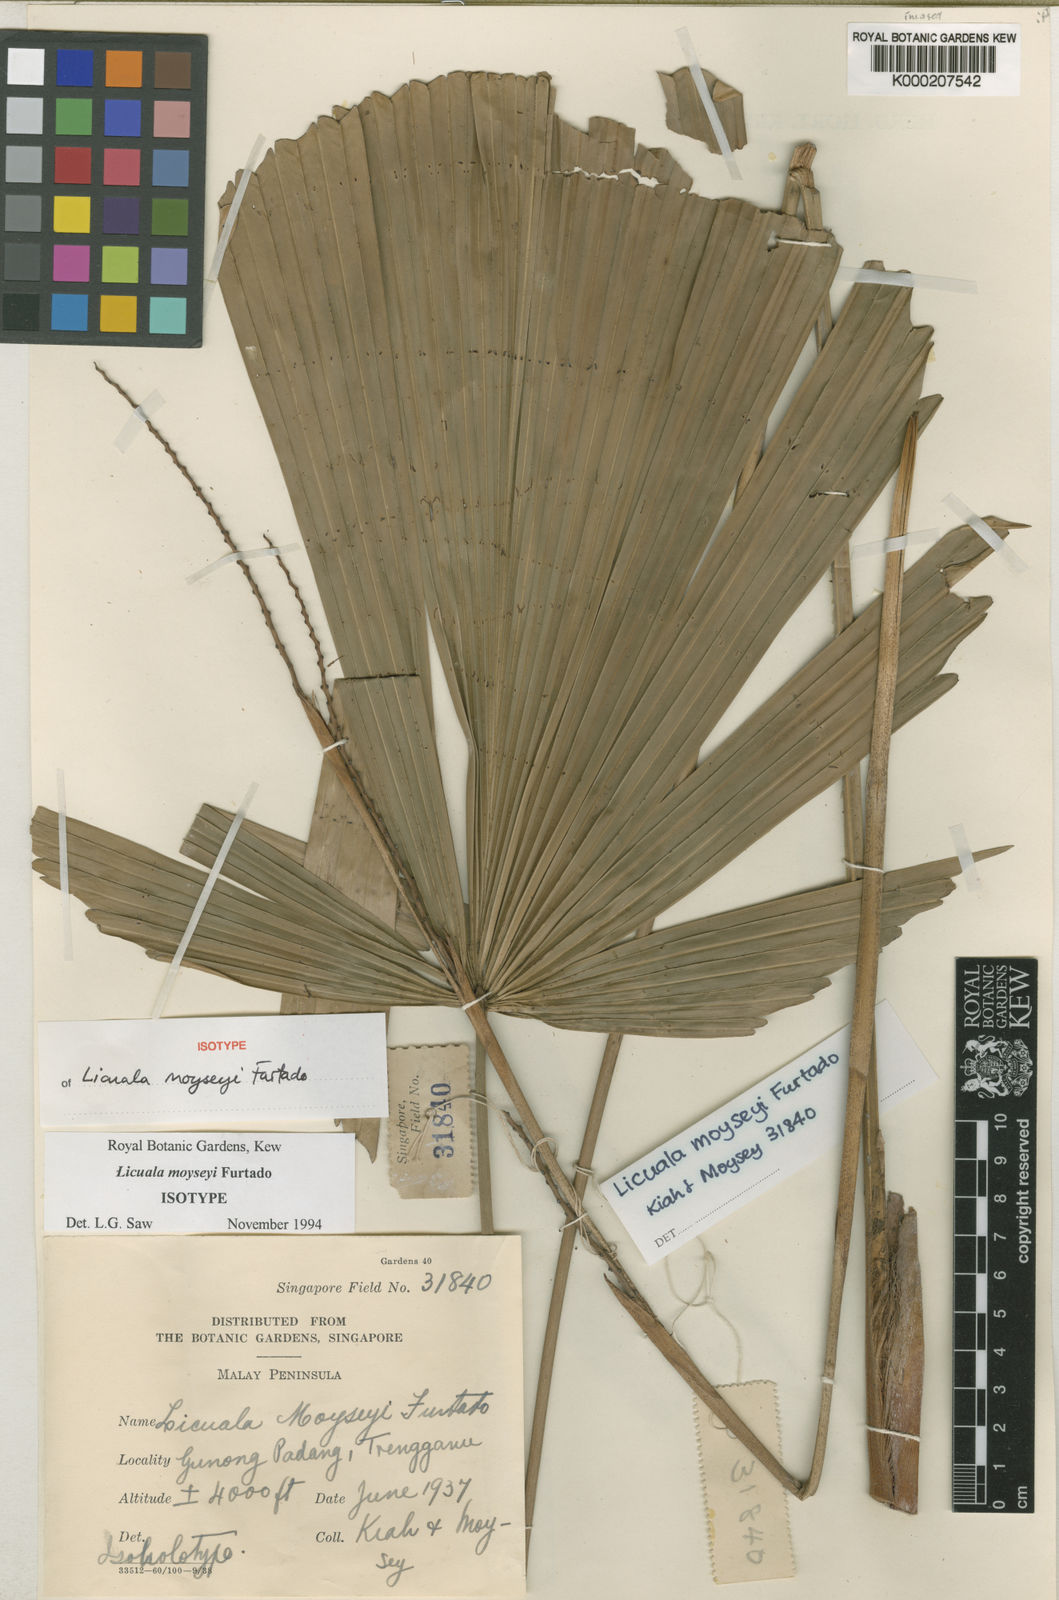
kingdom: Plantae
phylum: Tracheophyta
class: Liliopsida
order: Arecales
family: Arecaceae
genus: Licuala
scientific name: Licuala moyseyi
